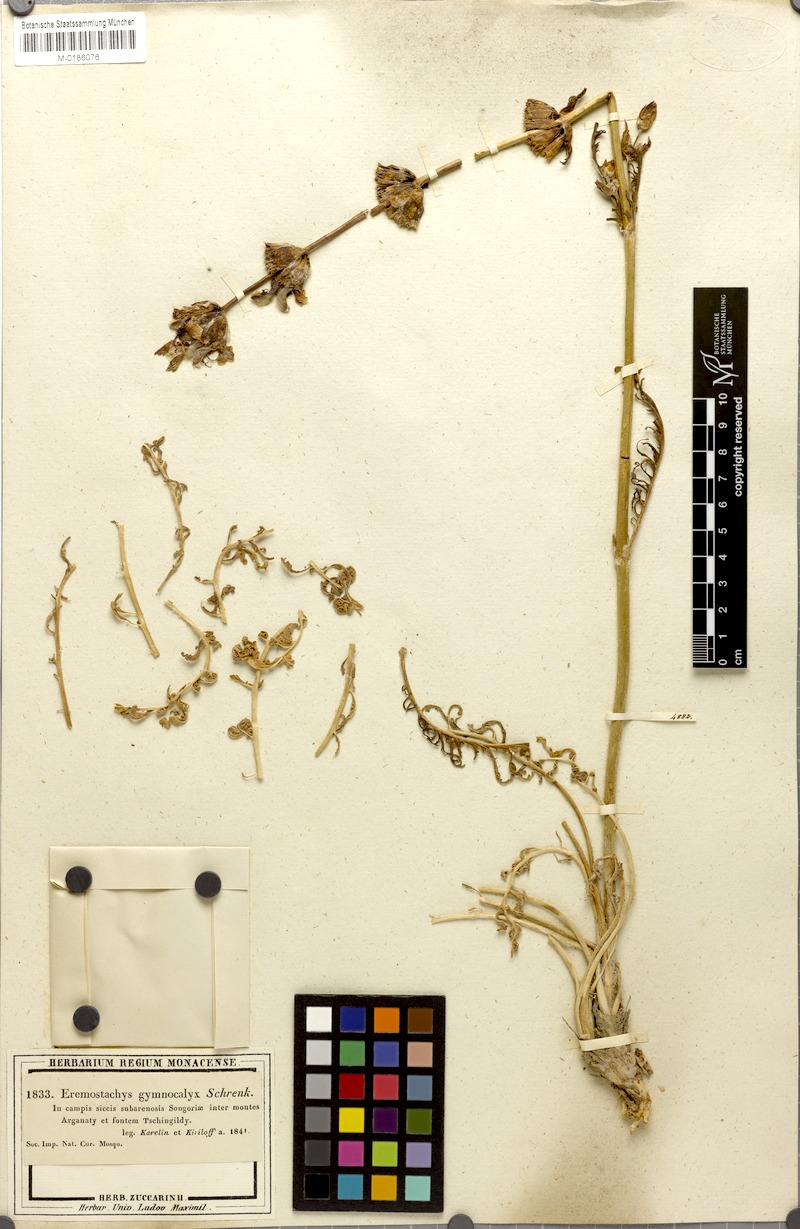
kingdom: Plantae
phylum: Tracheophyta
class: Magnoliopsida
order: Lamiales
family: Lamiaceae
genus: Phlomoides
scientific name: Phlomoides gymnocalyx
